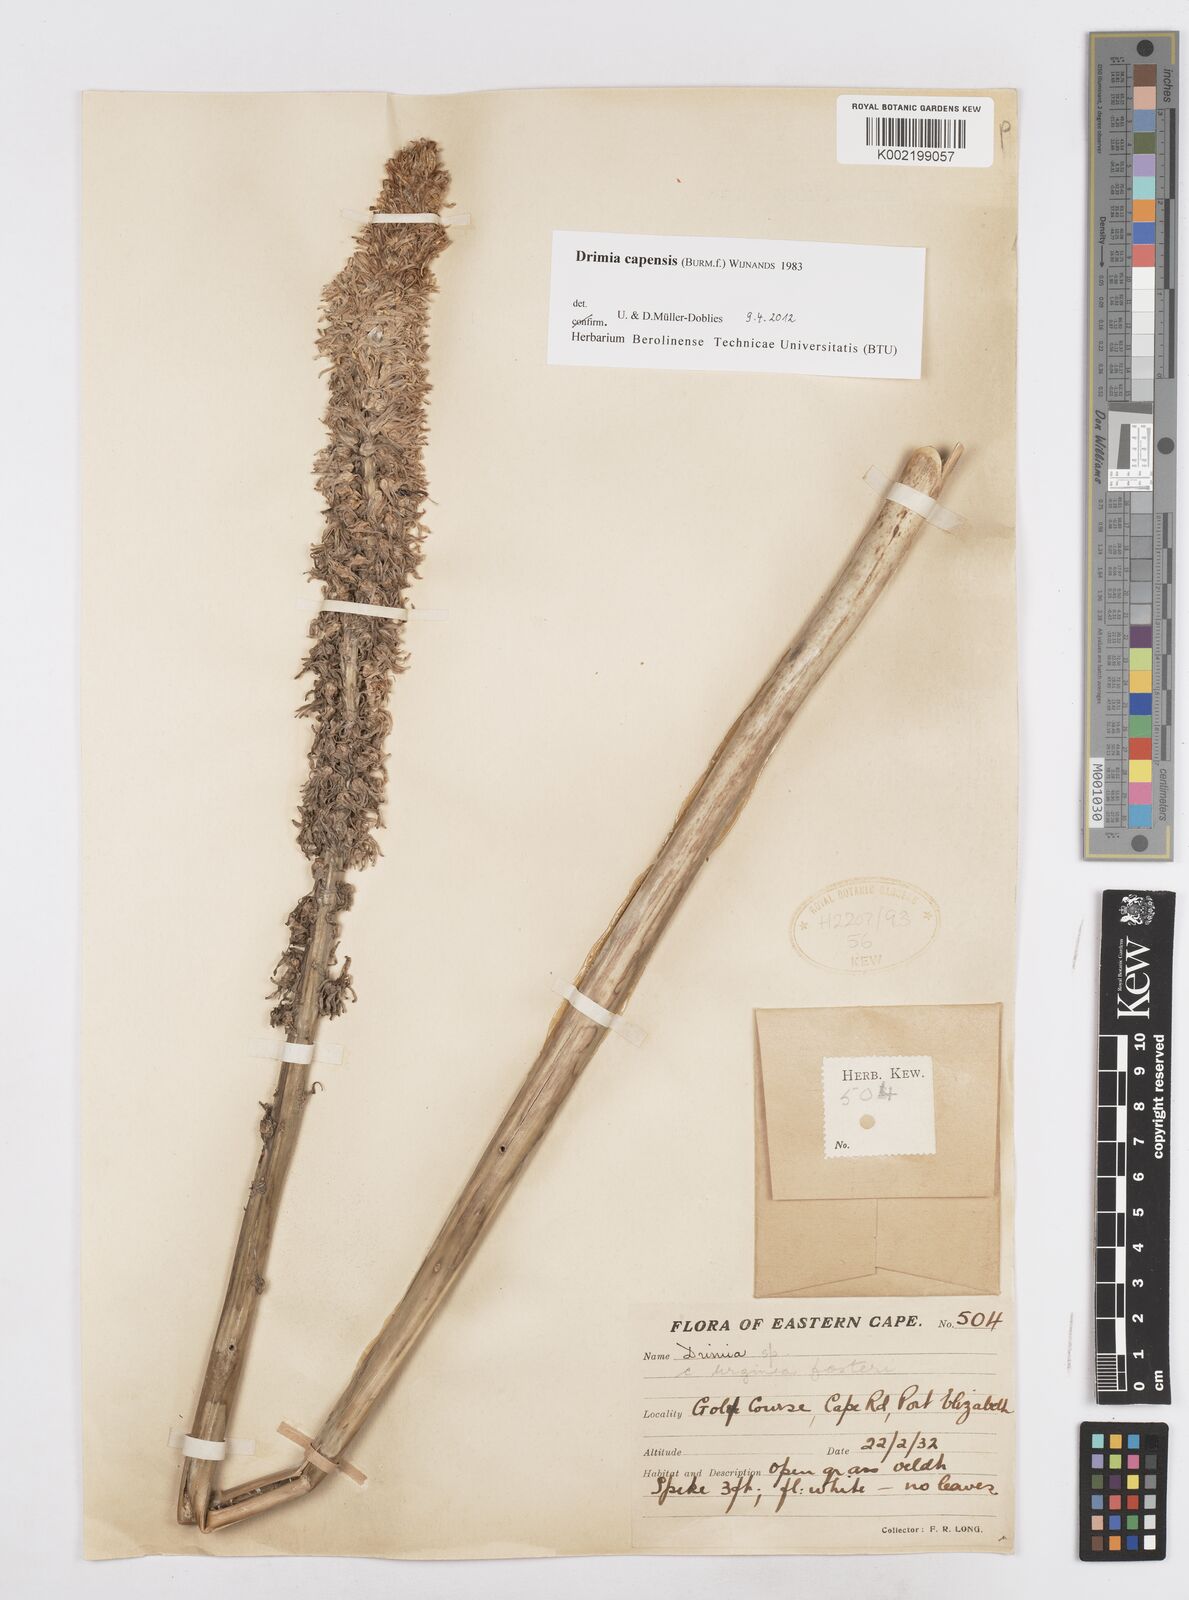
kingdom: Plantae
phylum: Tracheophyta
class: Liliopsida
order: Asparagales
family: Asparagaceae
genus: Drimia
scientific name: Drimia capensis
